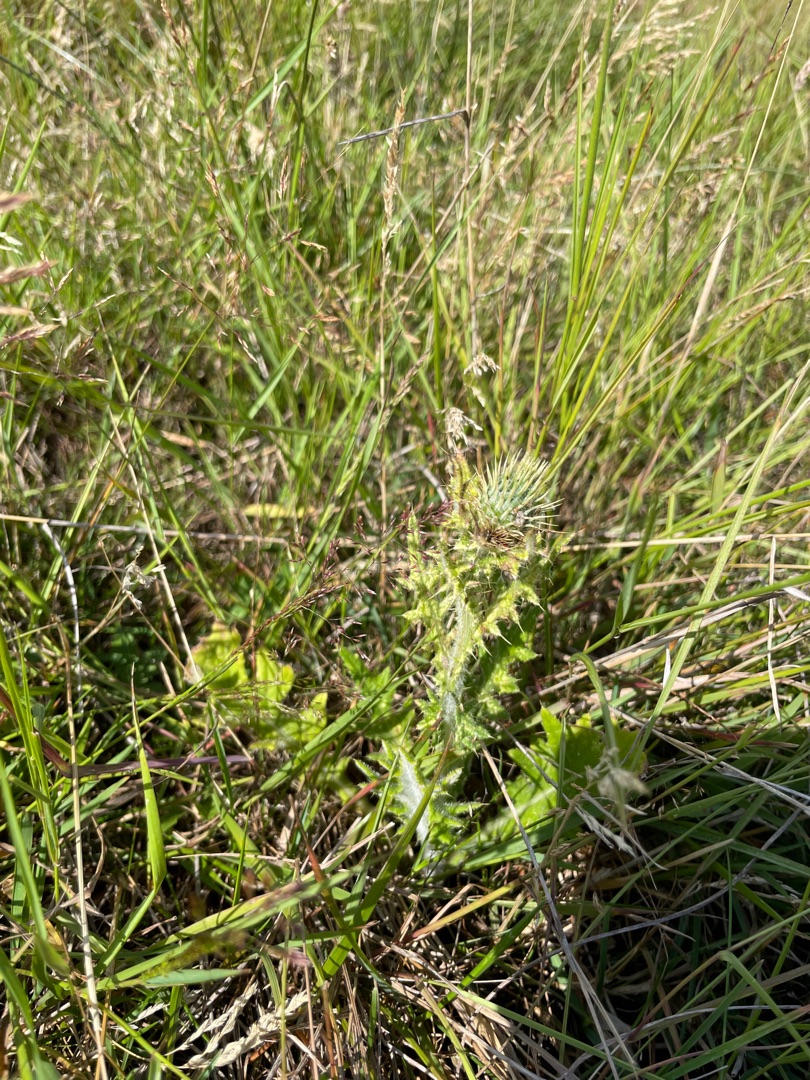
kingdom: Plantae
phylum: Tracheophyta
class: Magnoliopsida
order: Asterales
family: Asteraceae
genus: Cirsium
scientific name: Cirsium vulgare
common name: Horse-tidsel
